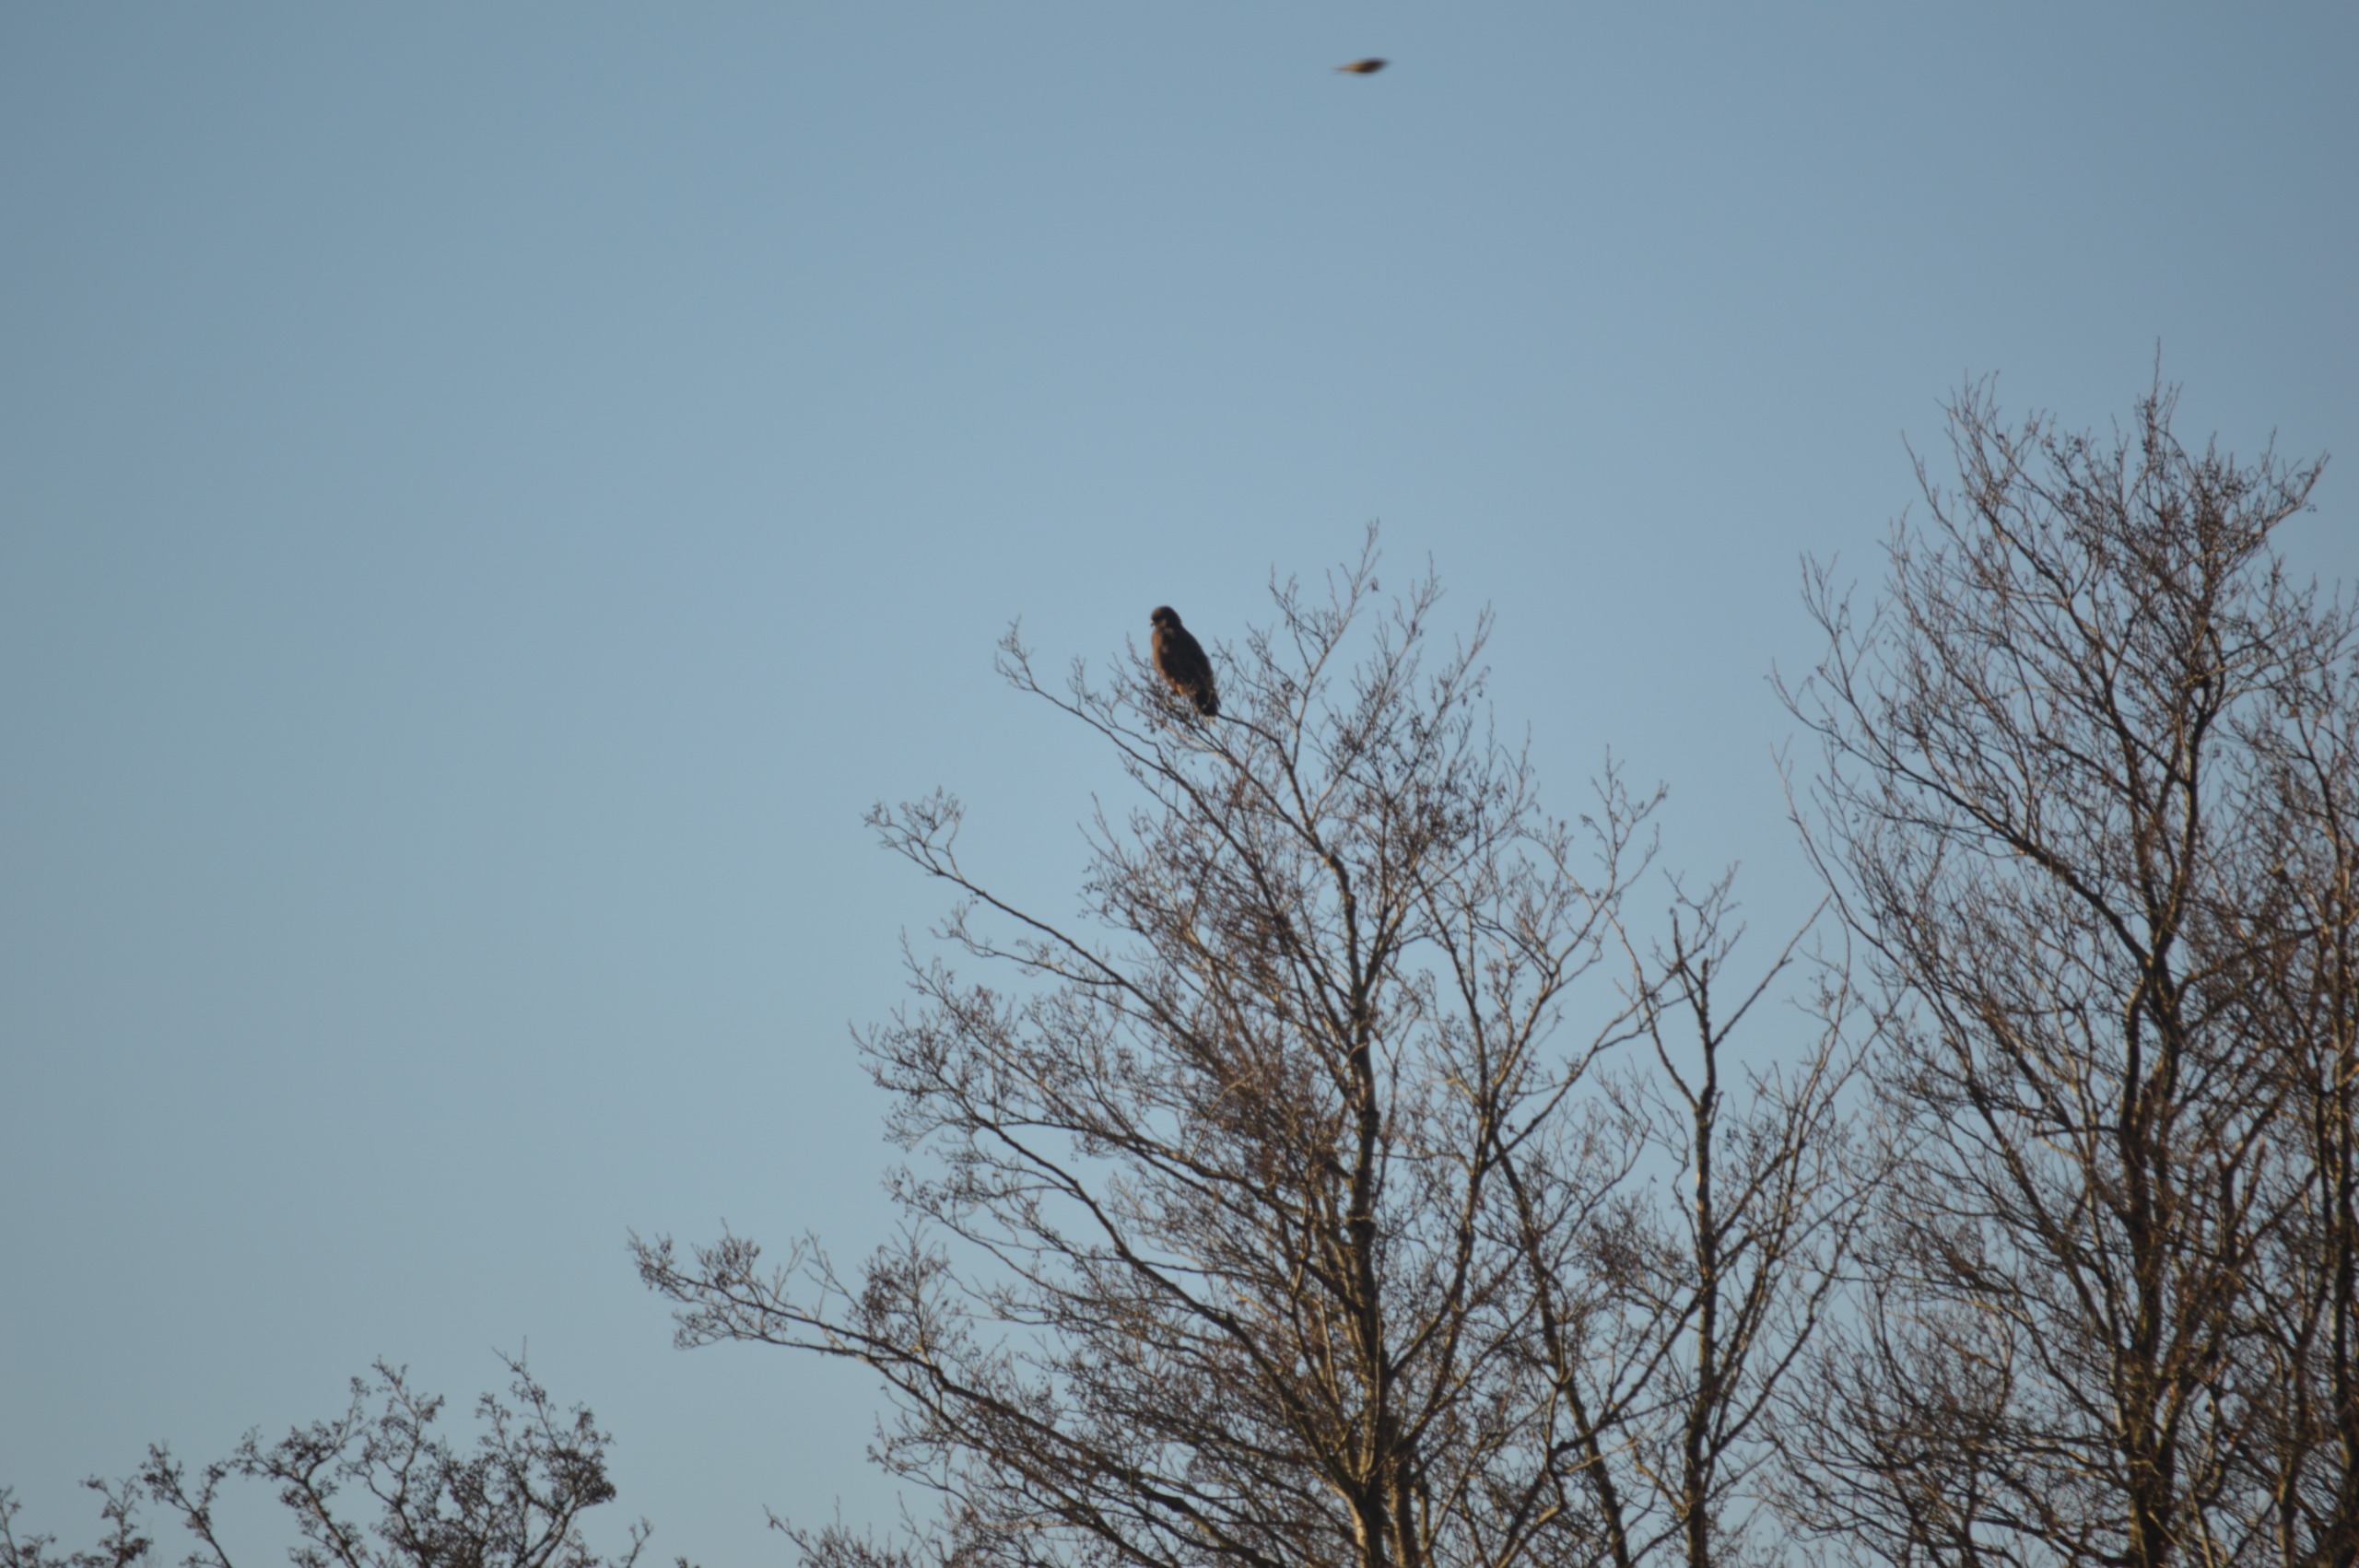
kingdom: Animalia
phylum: Chordata
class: Aves
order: Accipitriformes
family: Accipitridae
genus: Buteo
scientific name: Buteo buteo
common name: Musvåge
